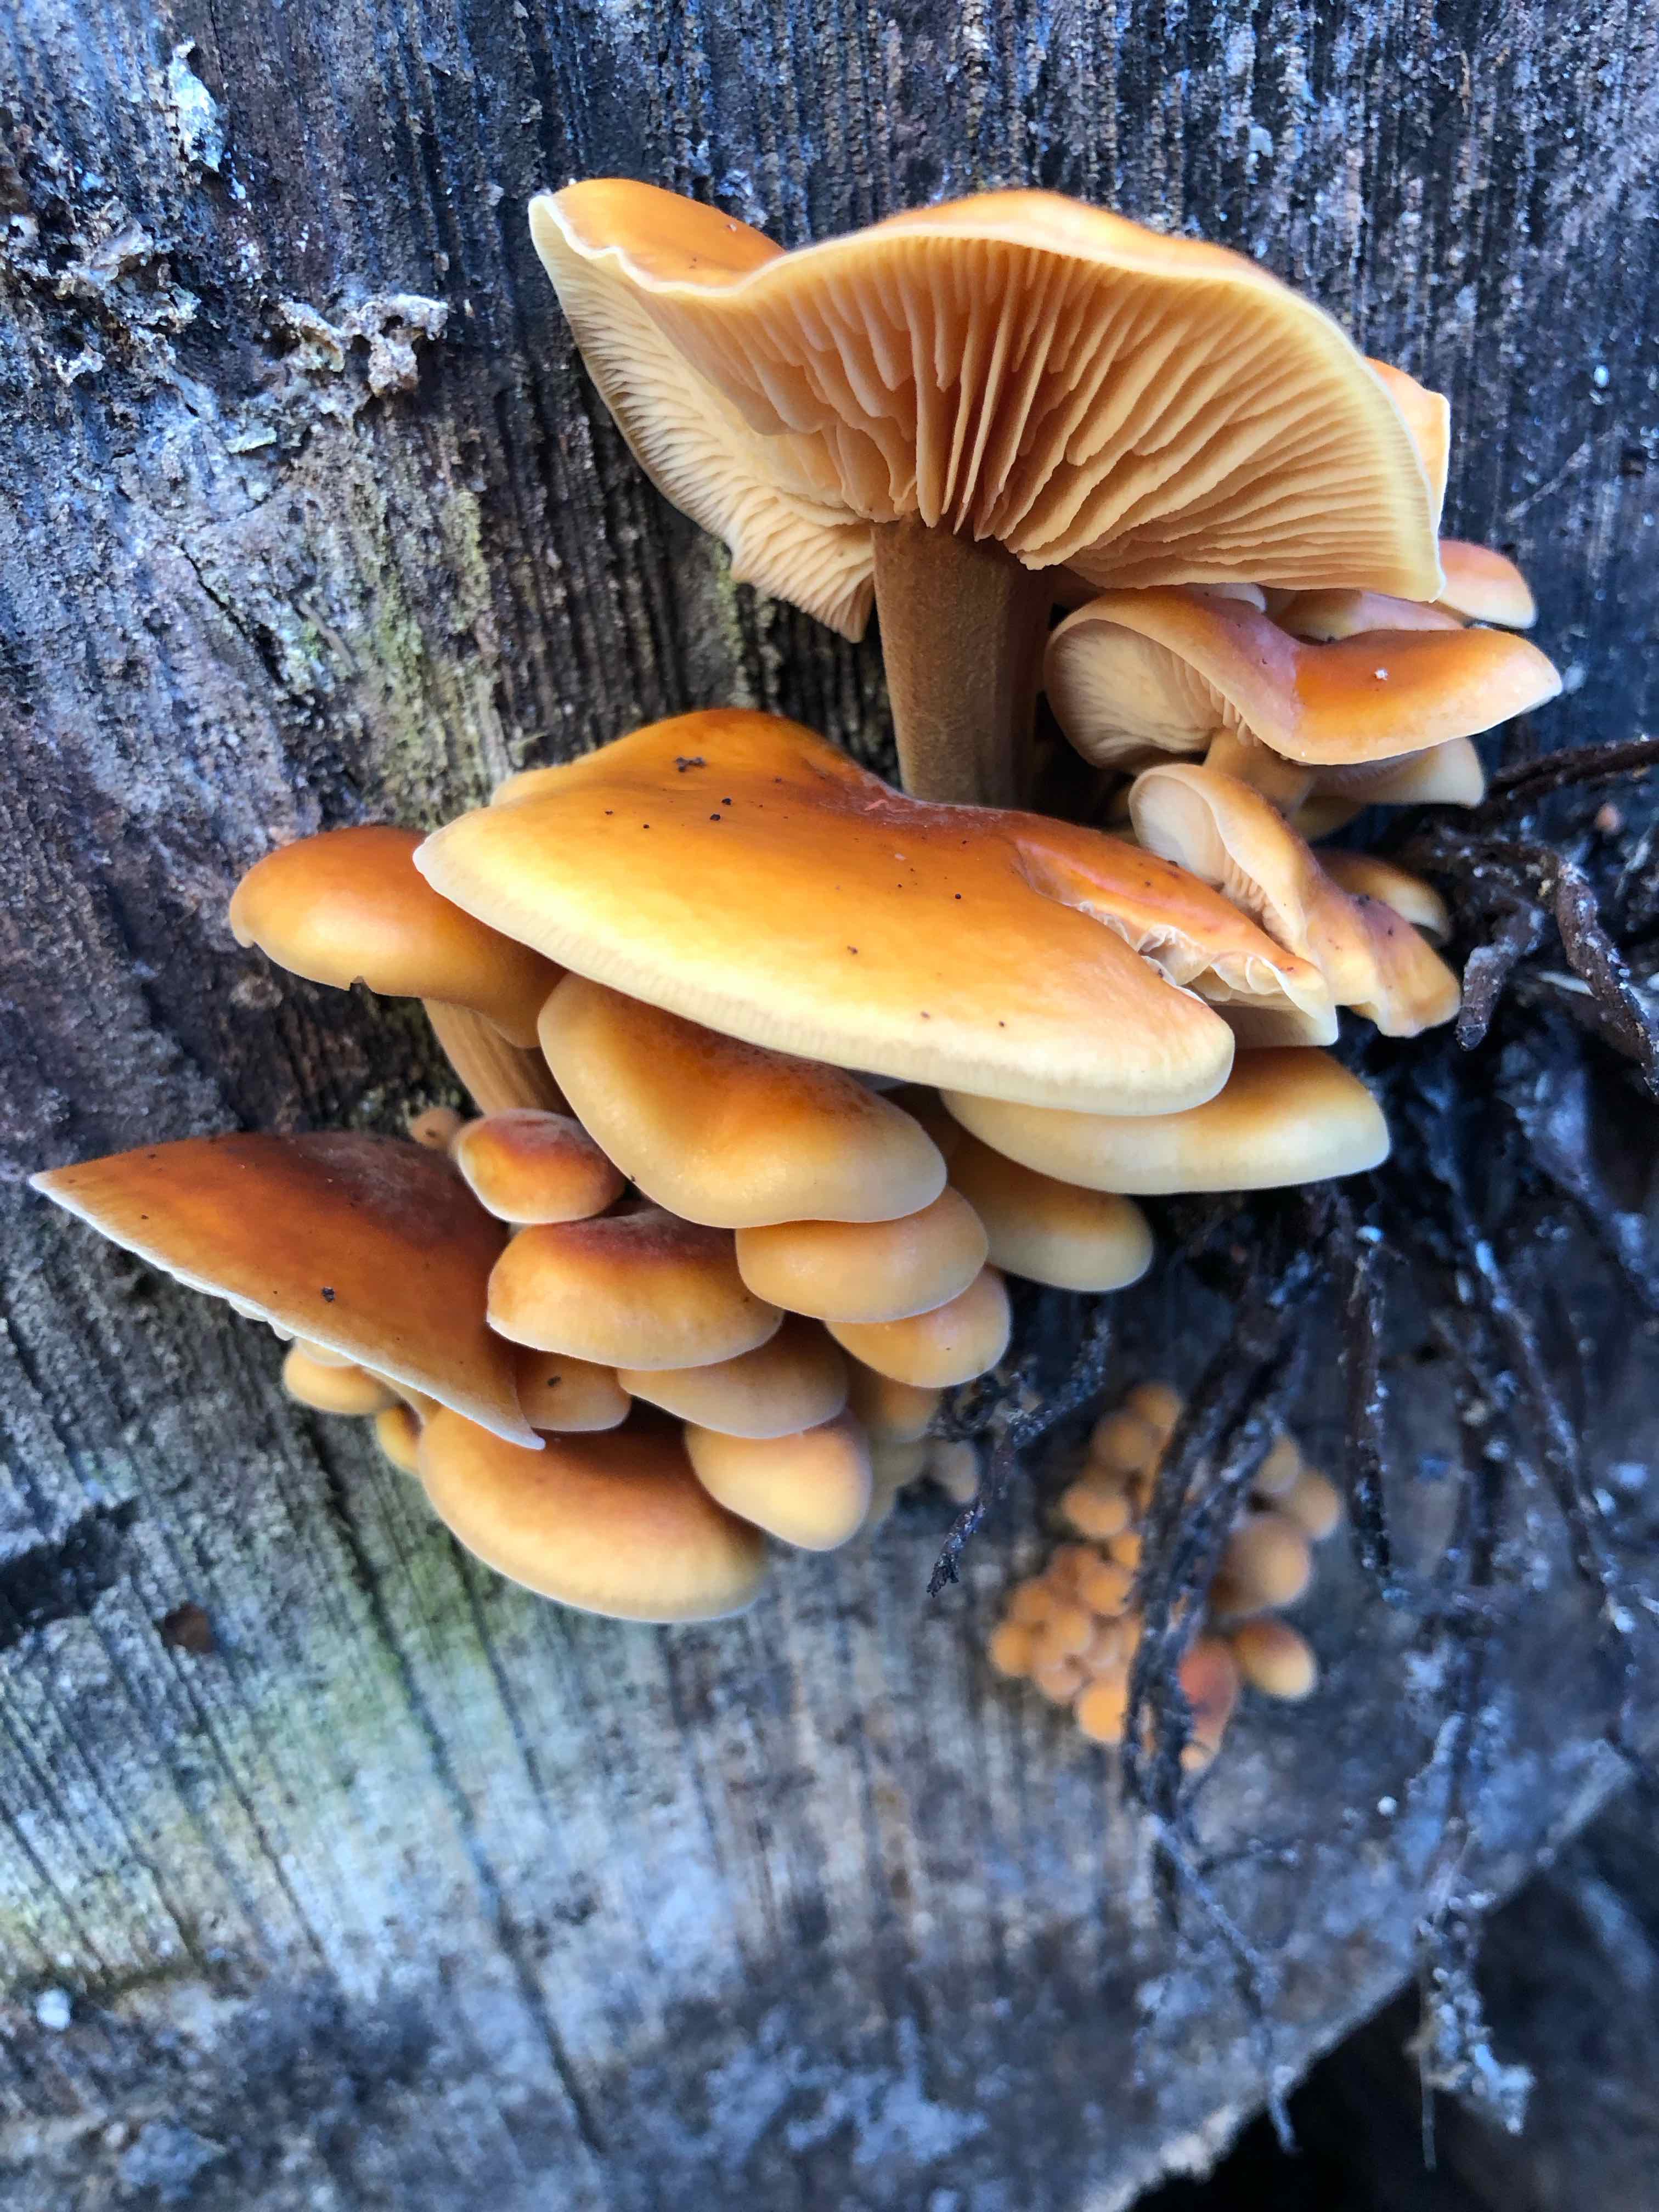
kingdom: Fungi
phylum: Basidiomycota
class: Agaricomycetes
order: Agaricales
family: Physalacriaceae
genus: Flammulina
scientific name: Flammulina velutipes
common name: gul fløjlsfod
